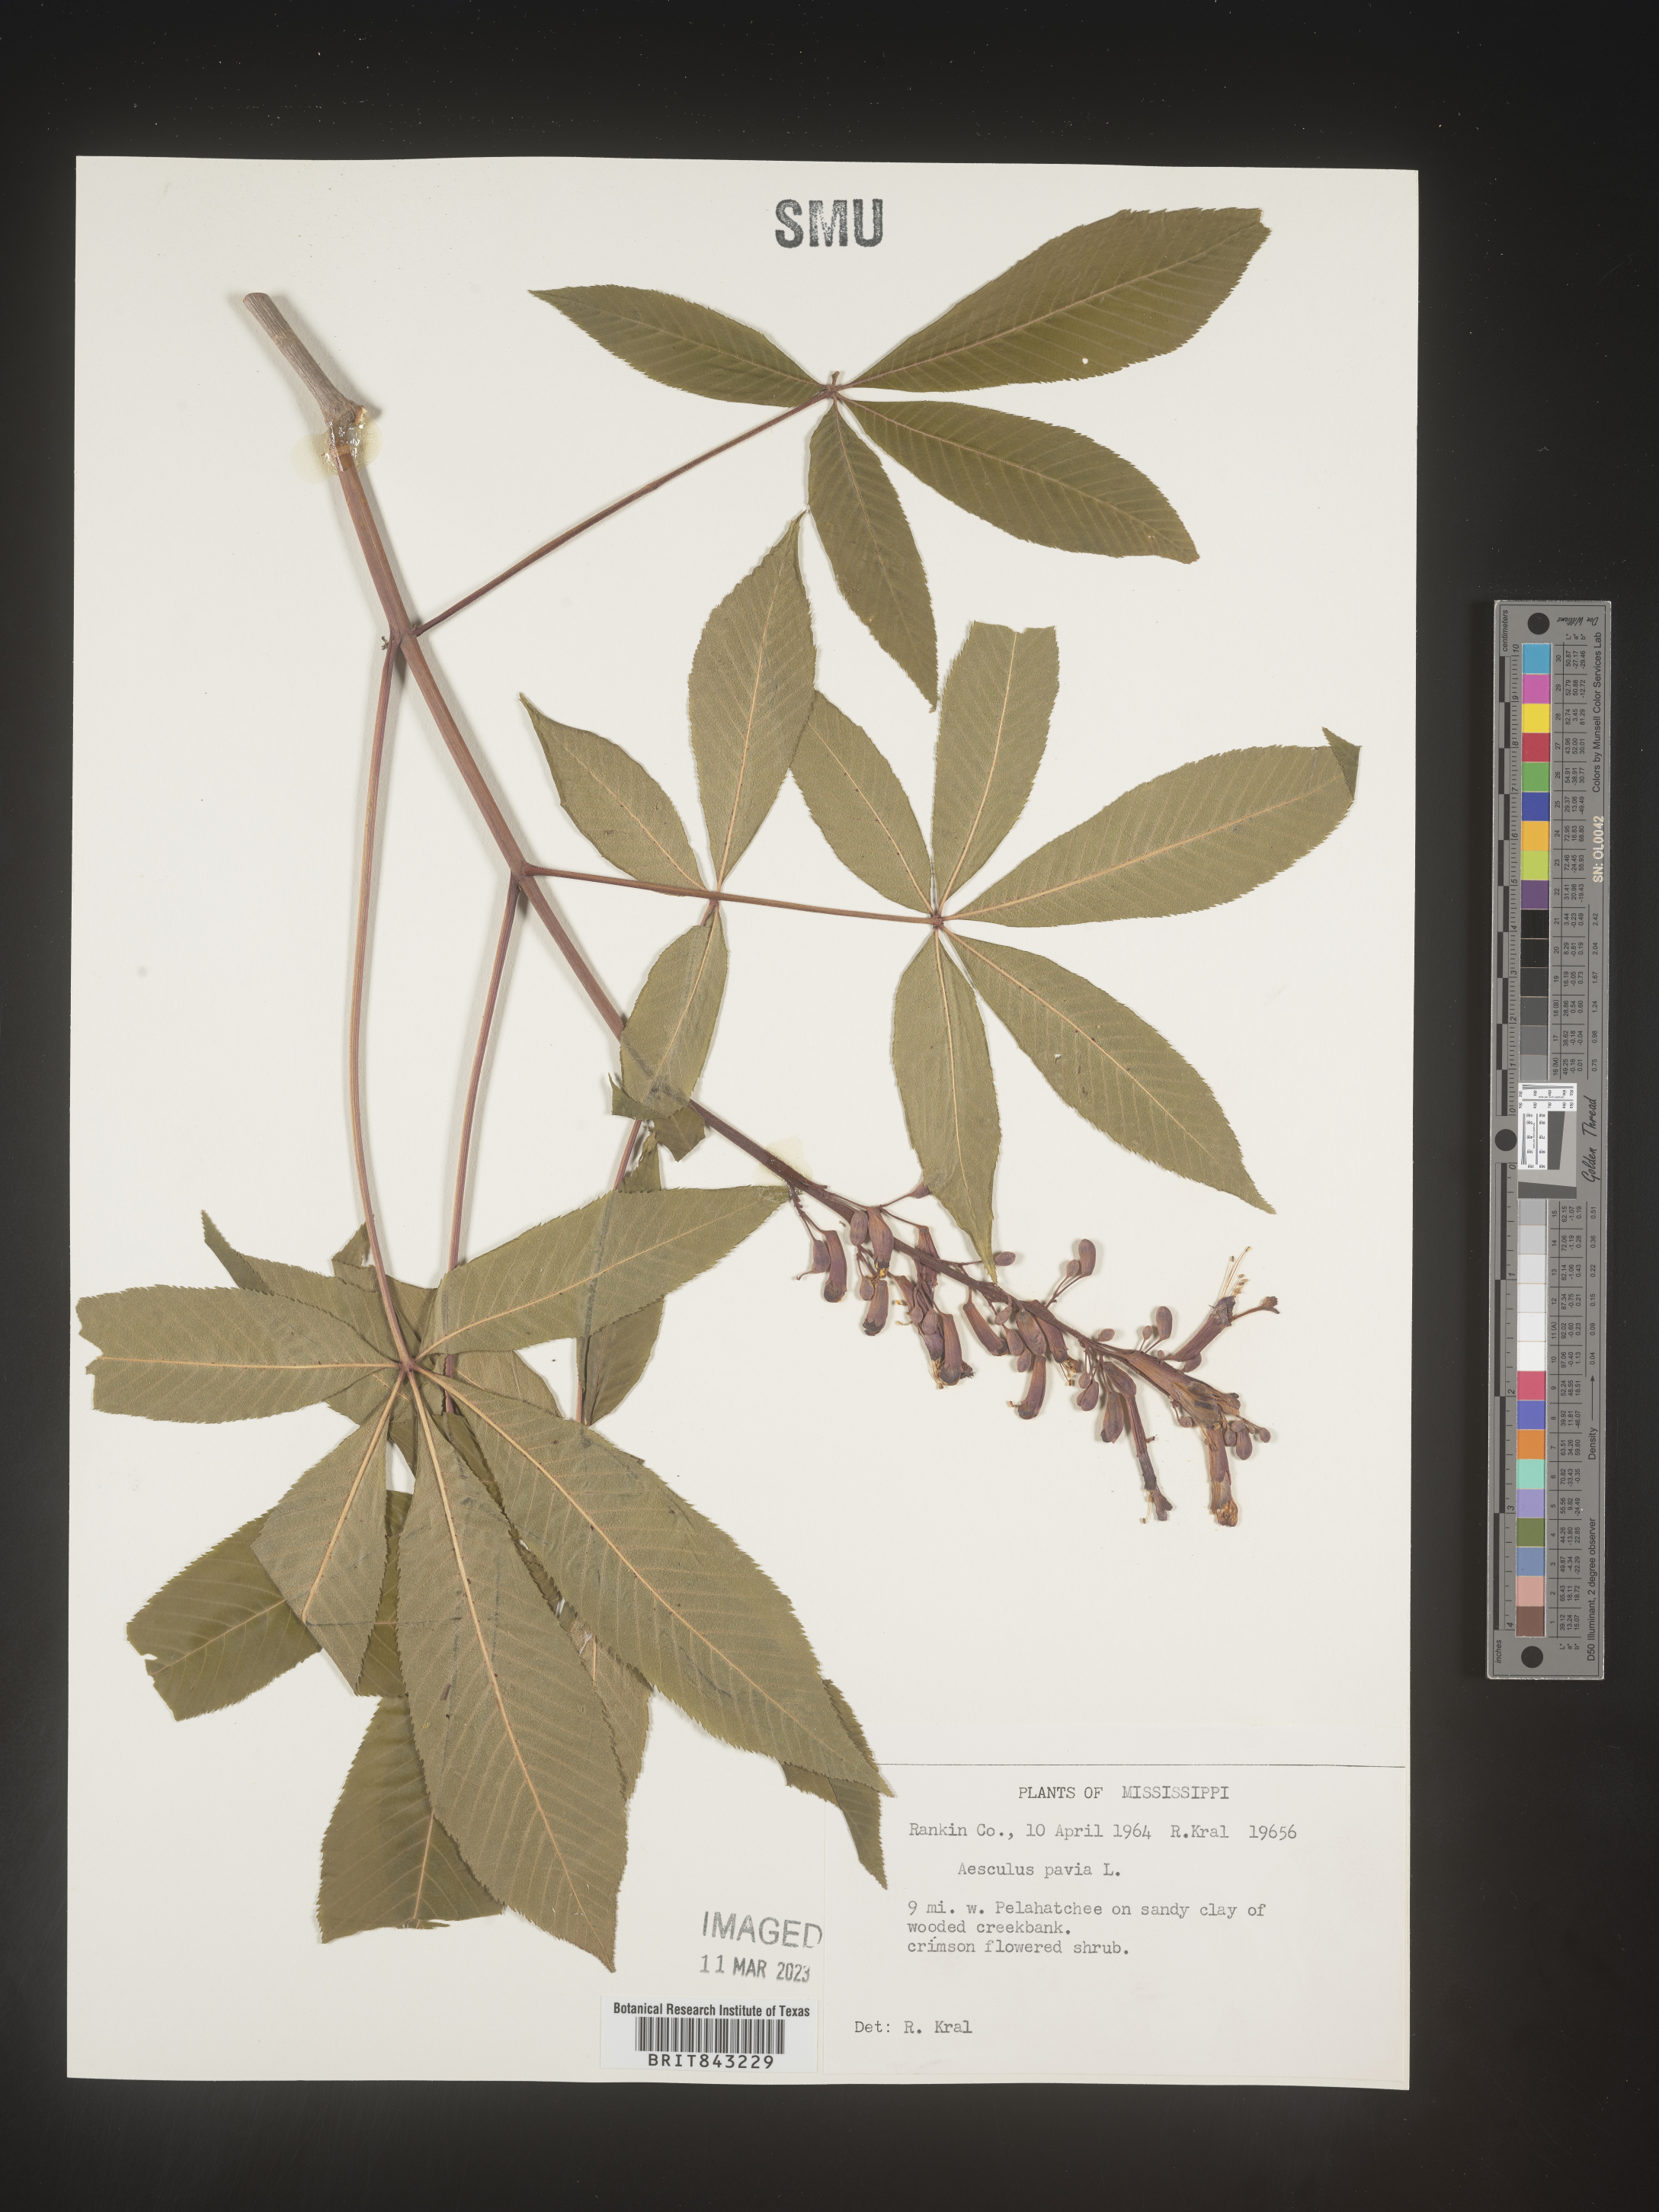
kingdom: Plantae
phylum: Tracheophyta
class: Magnoliopsida
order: Sapindales
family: Sapindaceae
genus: Aesculus
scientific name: Aesculus pavia
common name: Red buckeye
